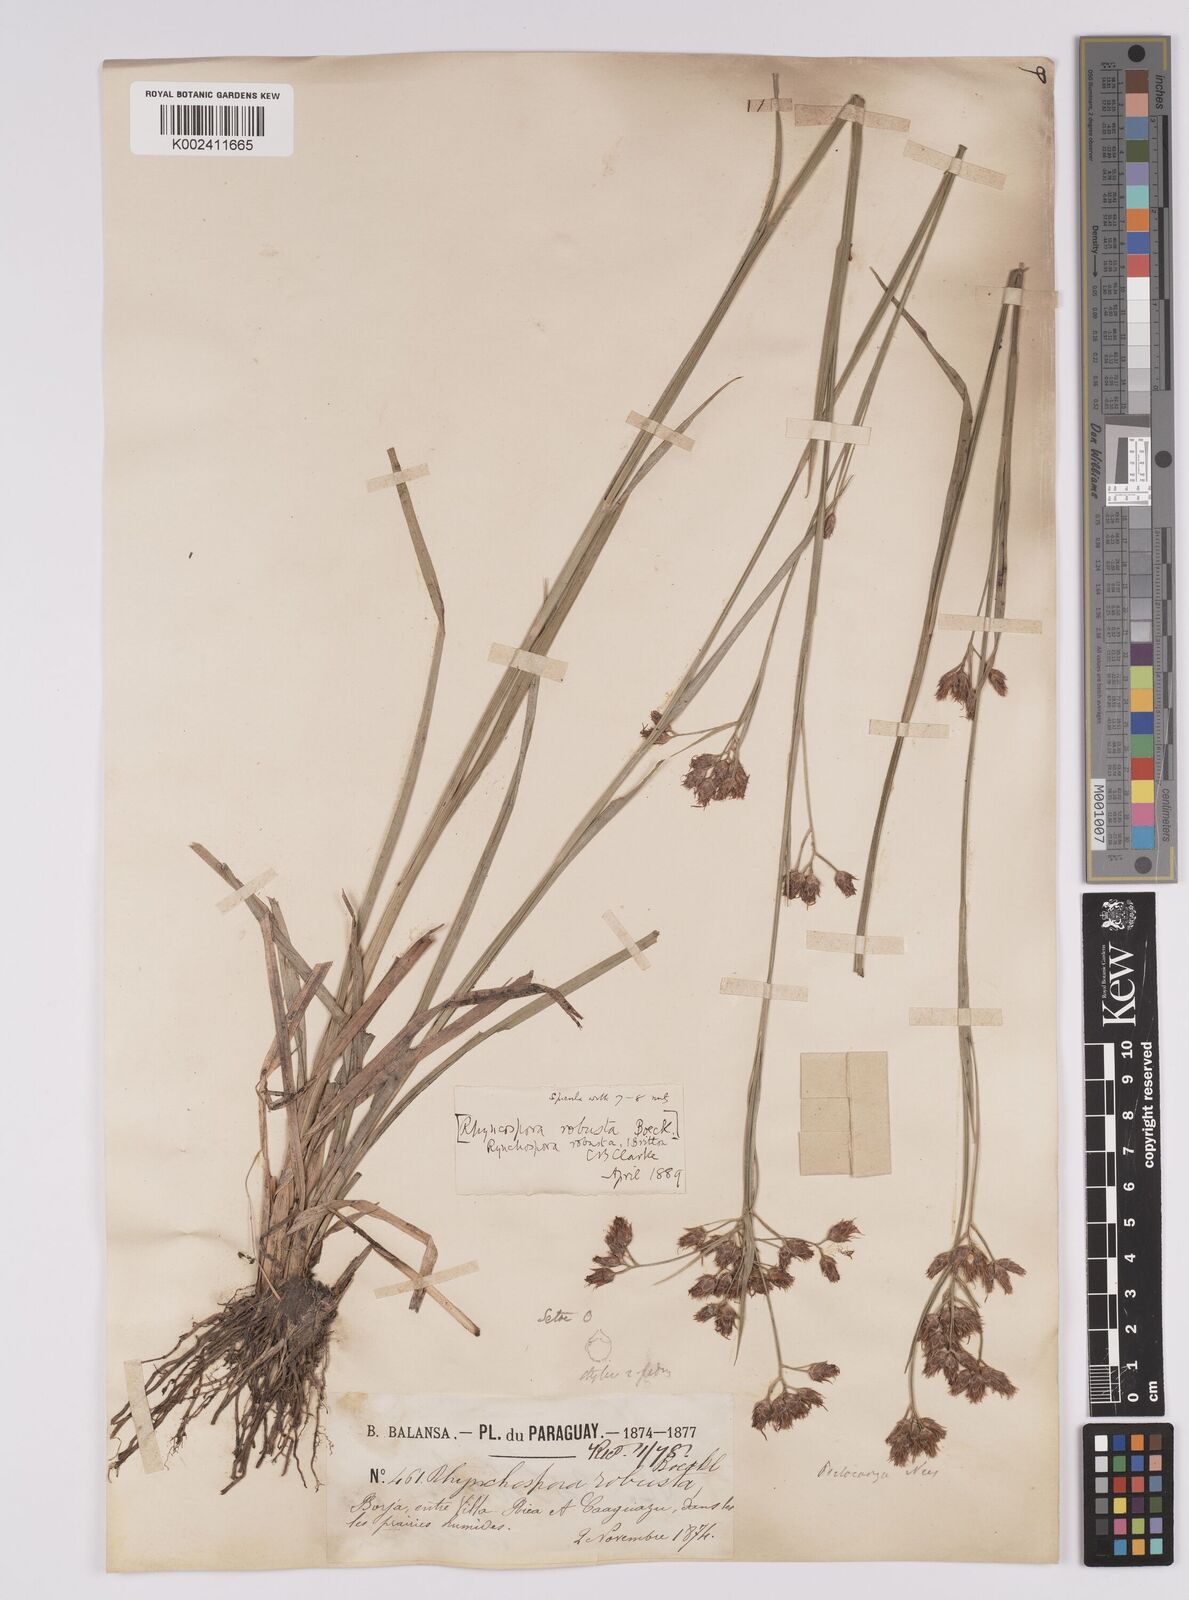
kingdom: Plantae
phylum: Tracheophyta
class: Liliopsida
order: Poales
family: Cyperaceae
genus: Rhynchospora
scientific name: Rhynchospora robusta
